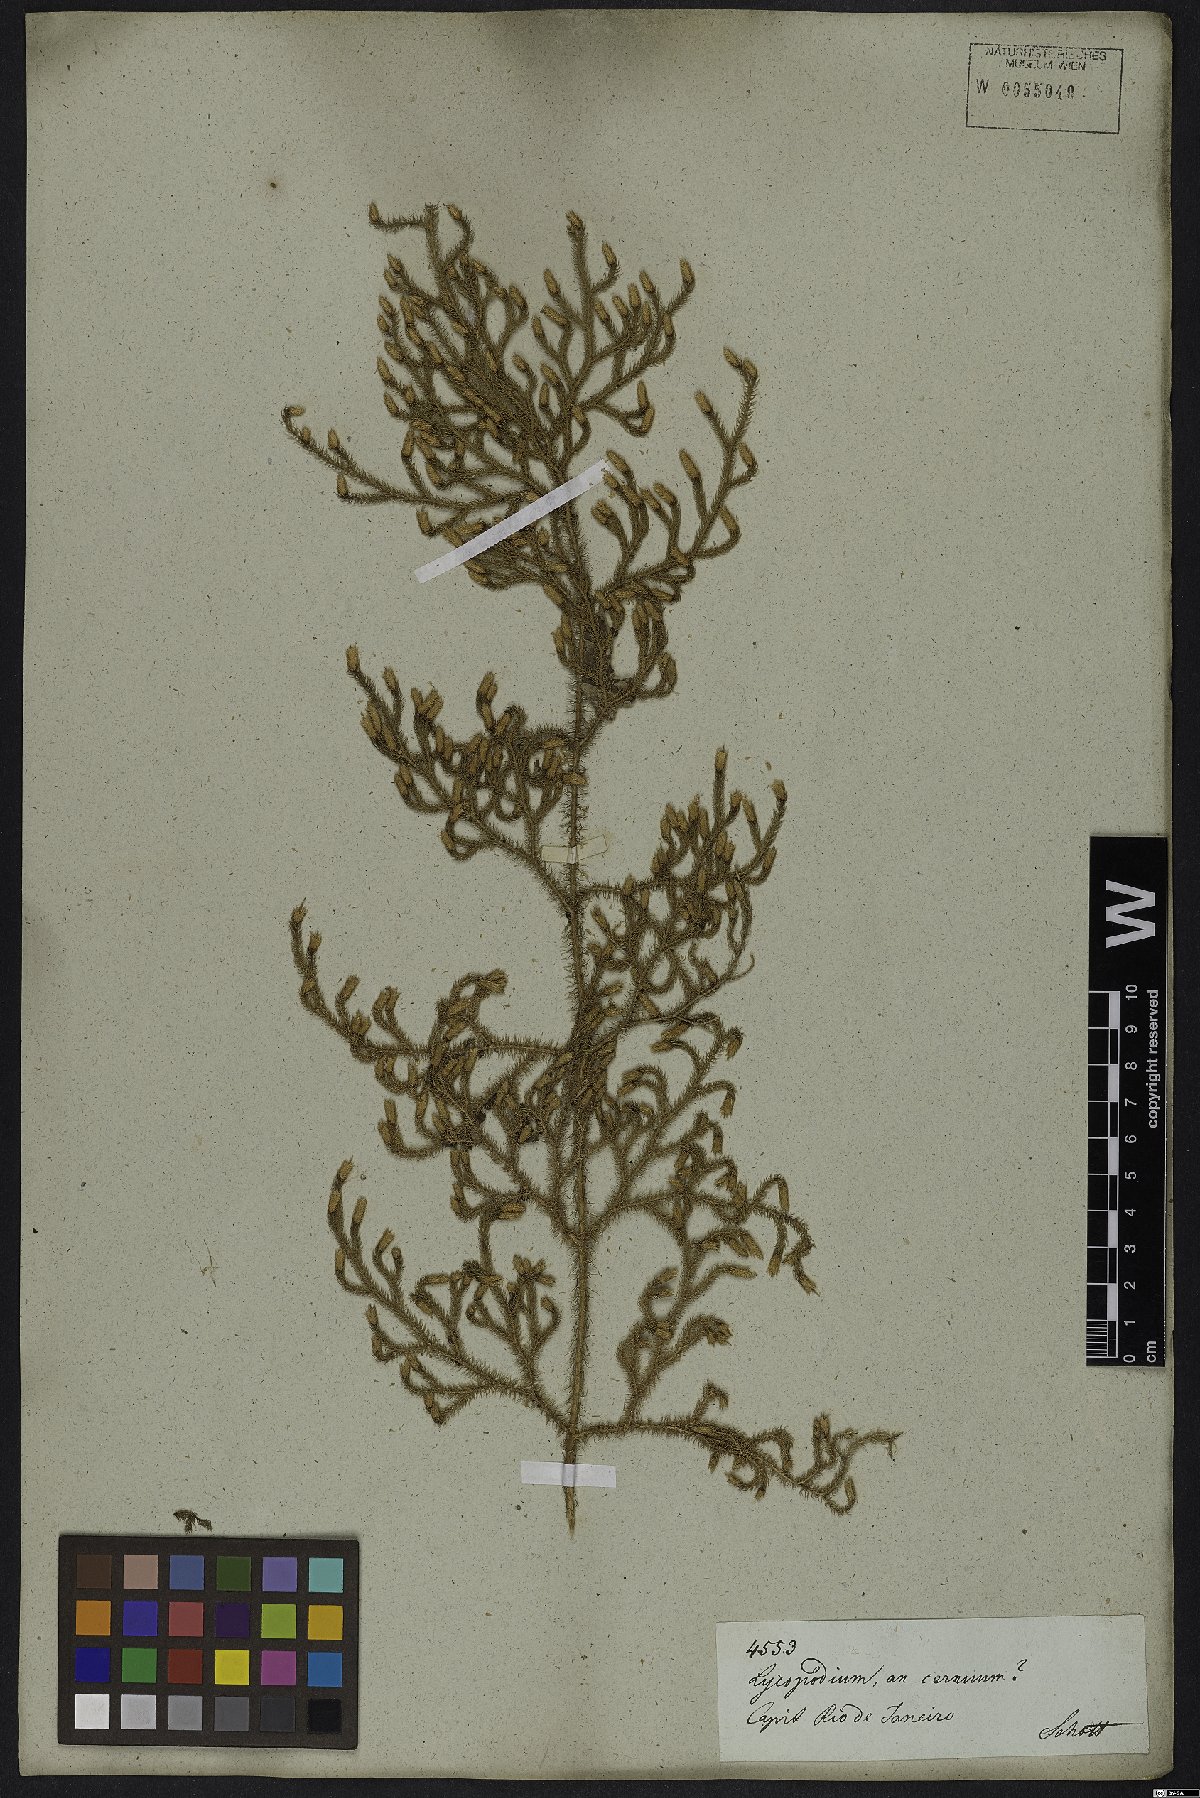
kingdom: Plantae
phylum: Tracheophyta
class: Lycopodiopsida
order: Lycopodiales
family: Lycopodiaceae
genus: Palhinhaea
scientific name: Palhinhaea cernua
